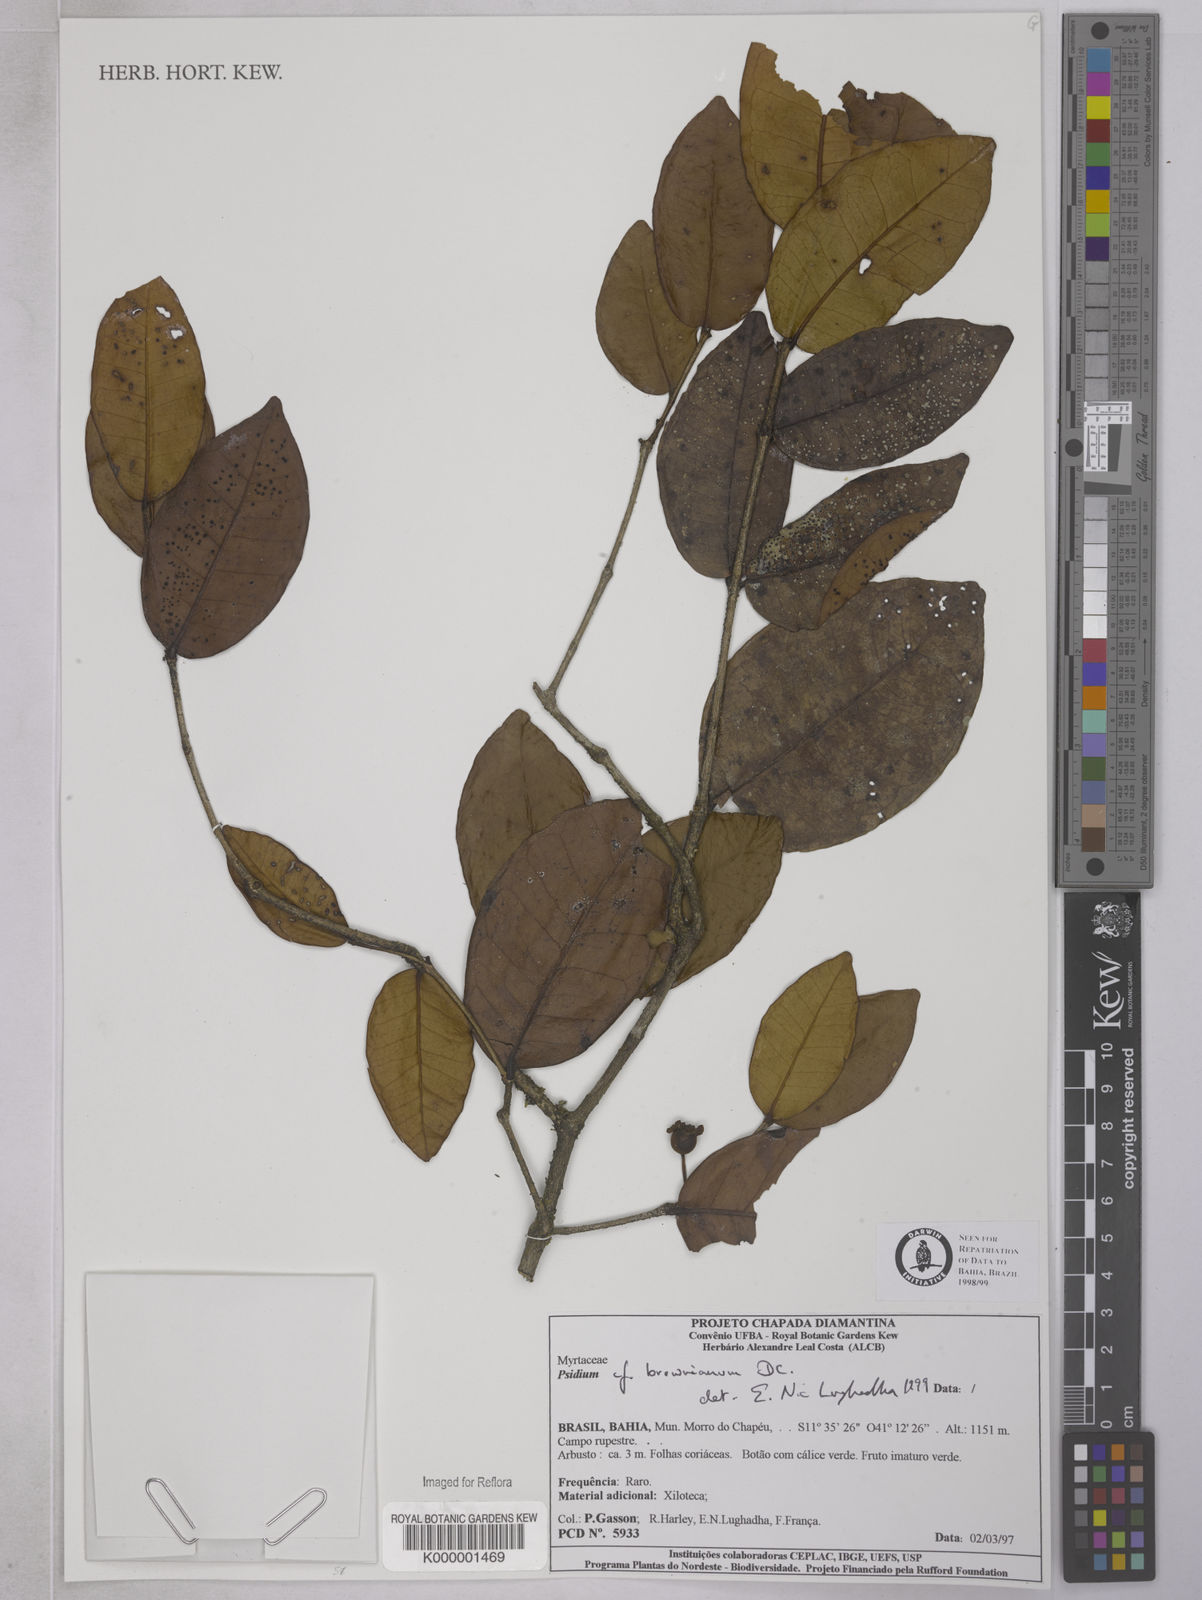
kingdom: Plantae
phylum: Tracheophyta
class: Magnoliopsida
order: Myrtales
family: Myrtaceae
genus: Psidium
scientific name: Psidium brownianum
